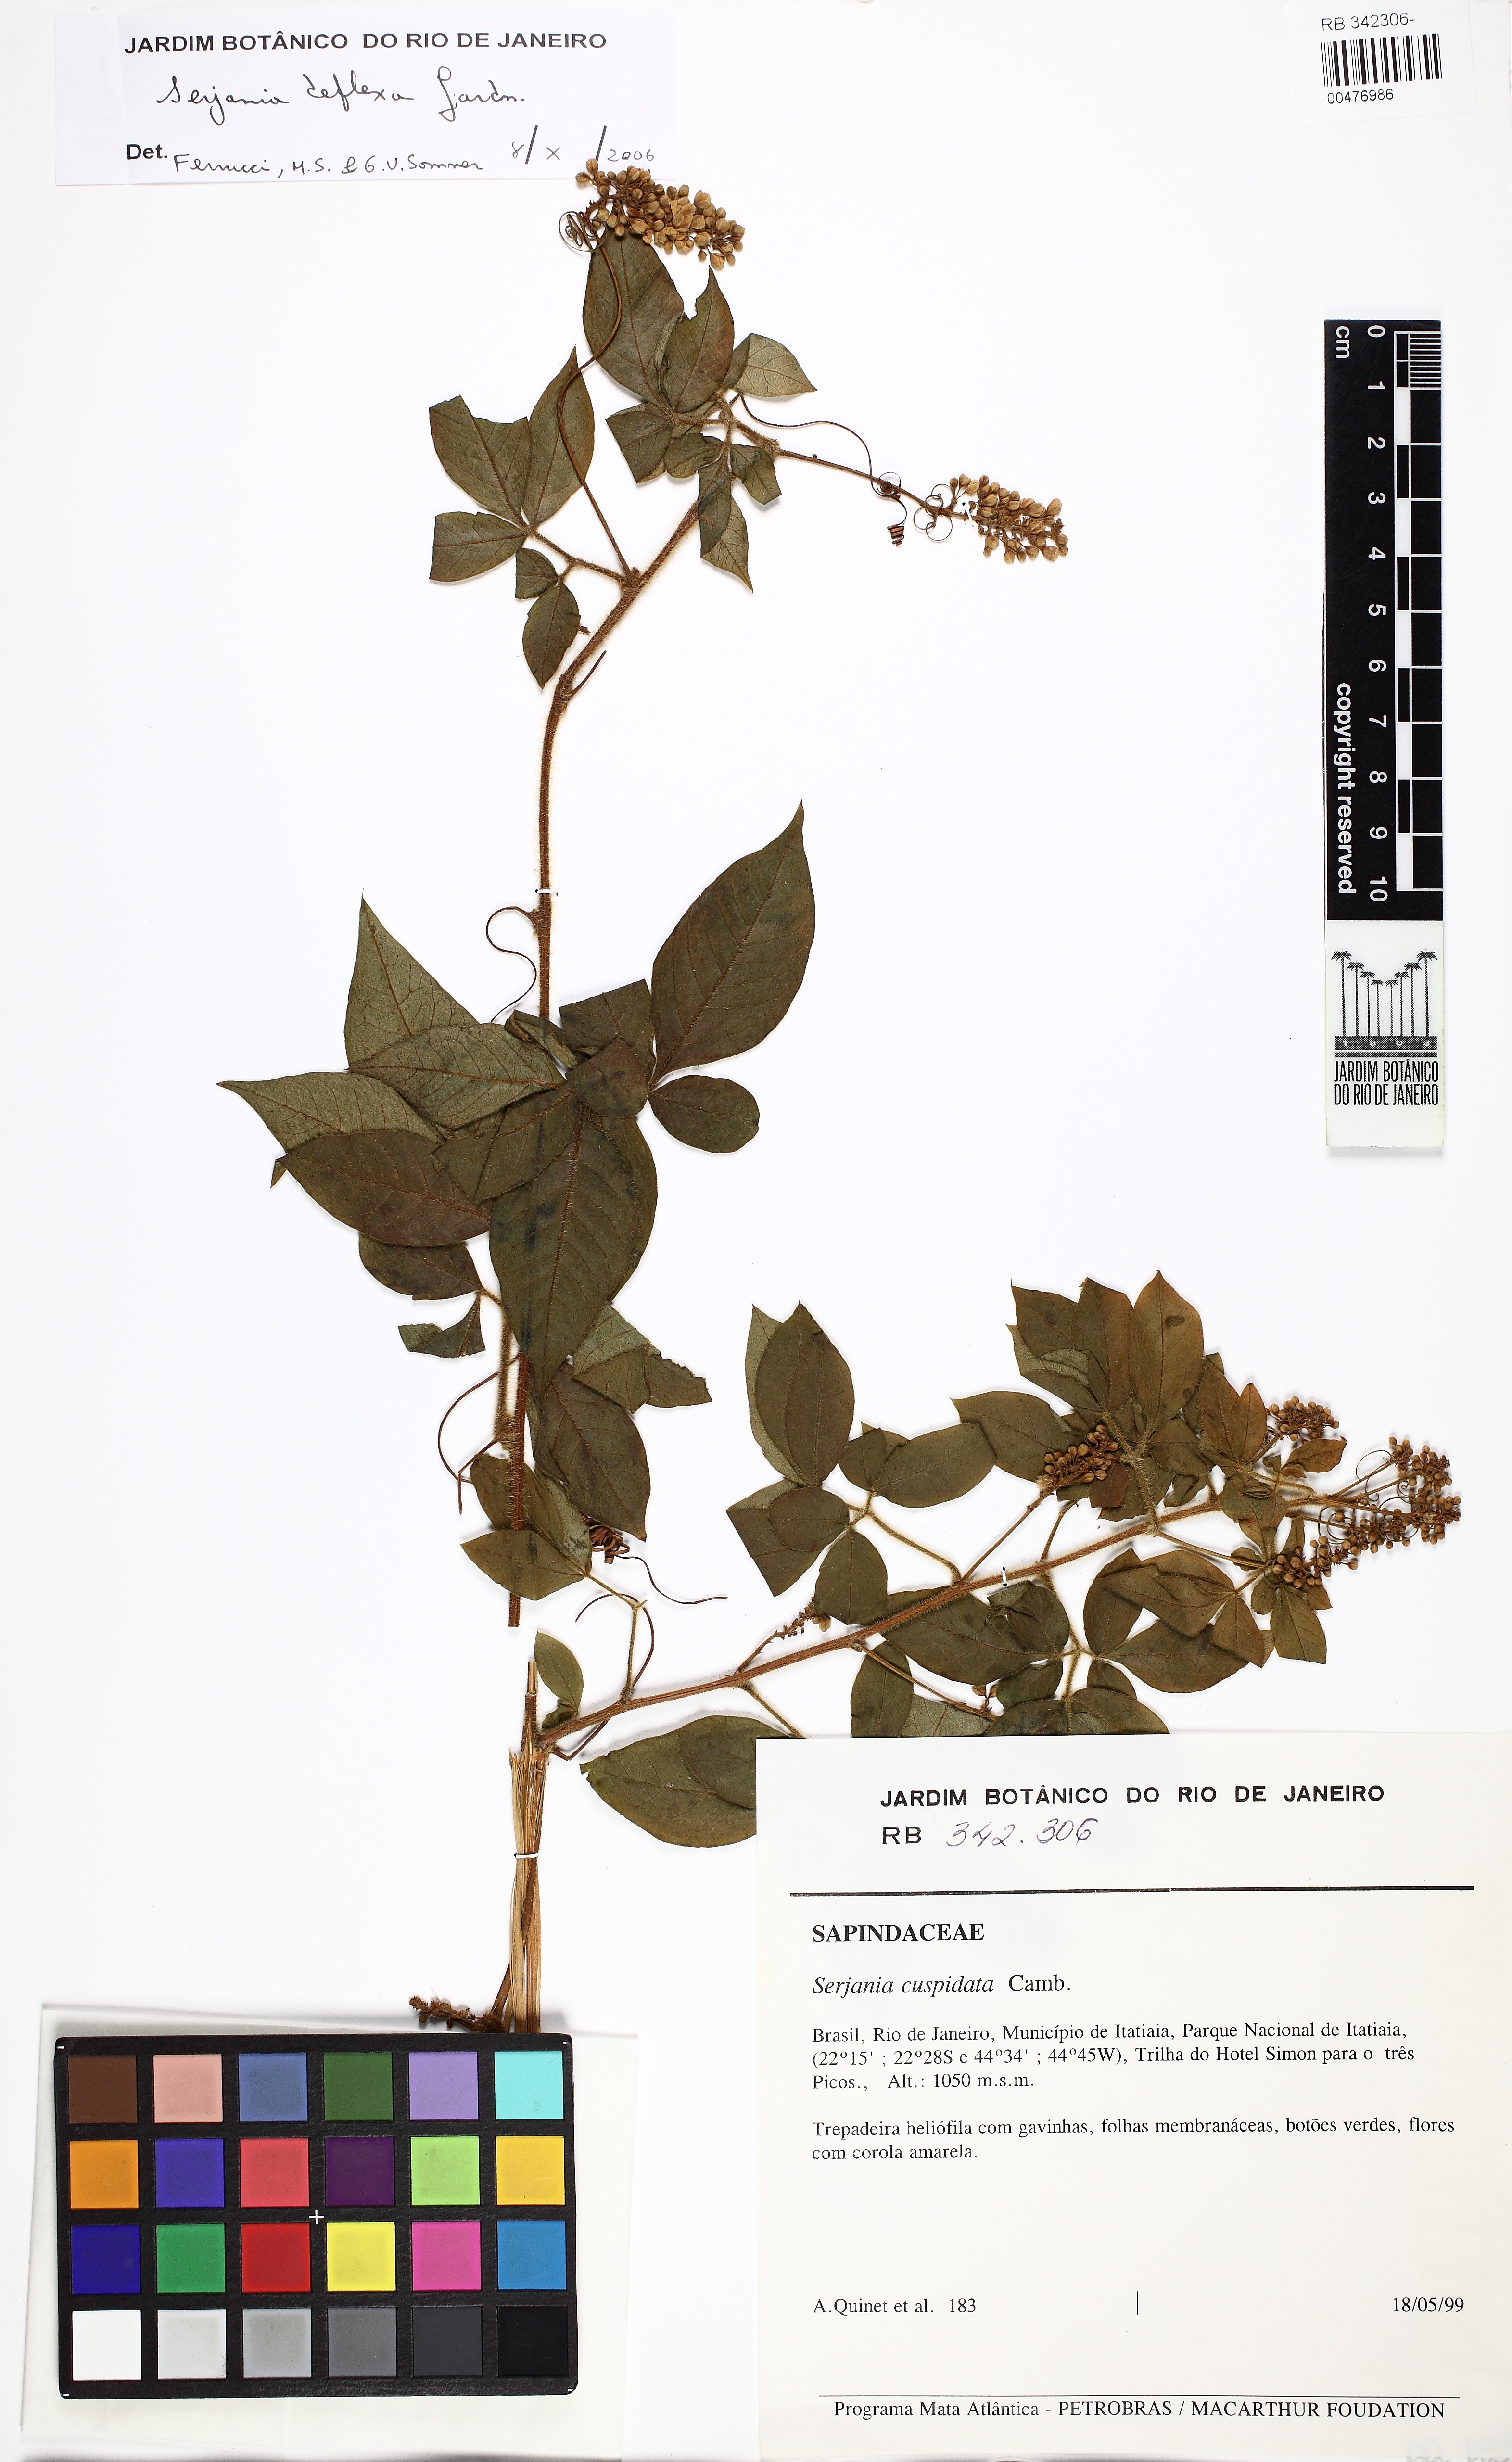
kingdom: Plantae
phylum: Tracheophyta
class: Magnoliopsida
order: Sapindales
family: Sapindaceae
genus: Serjania
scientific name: Serjania ferruginea
